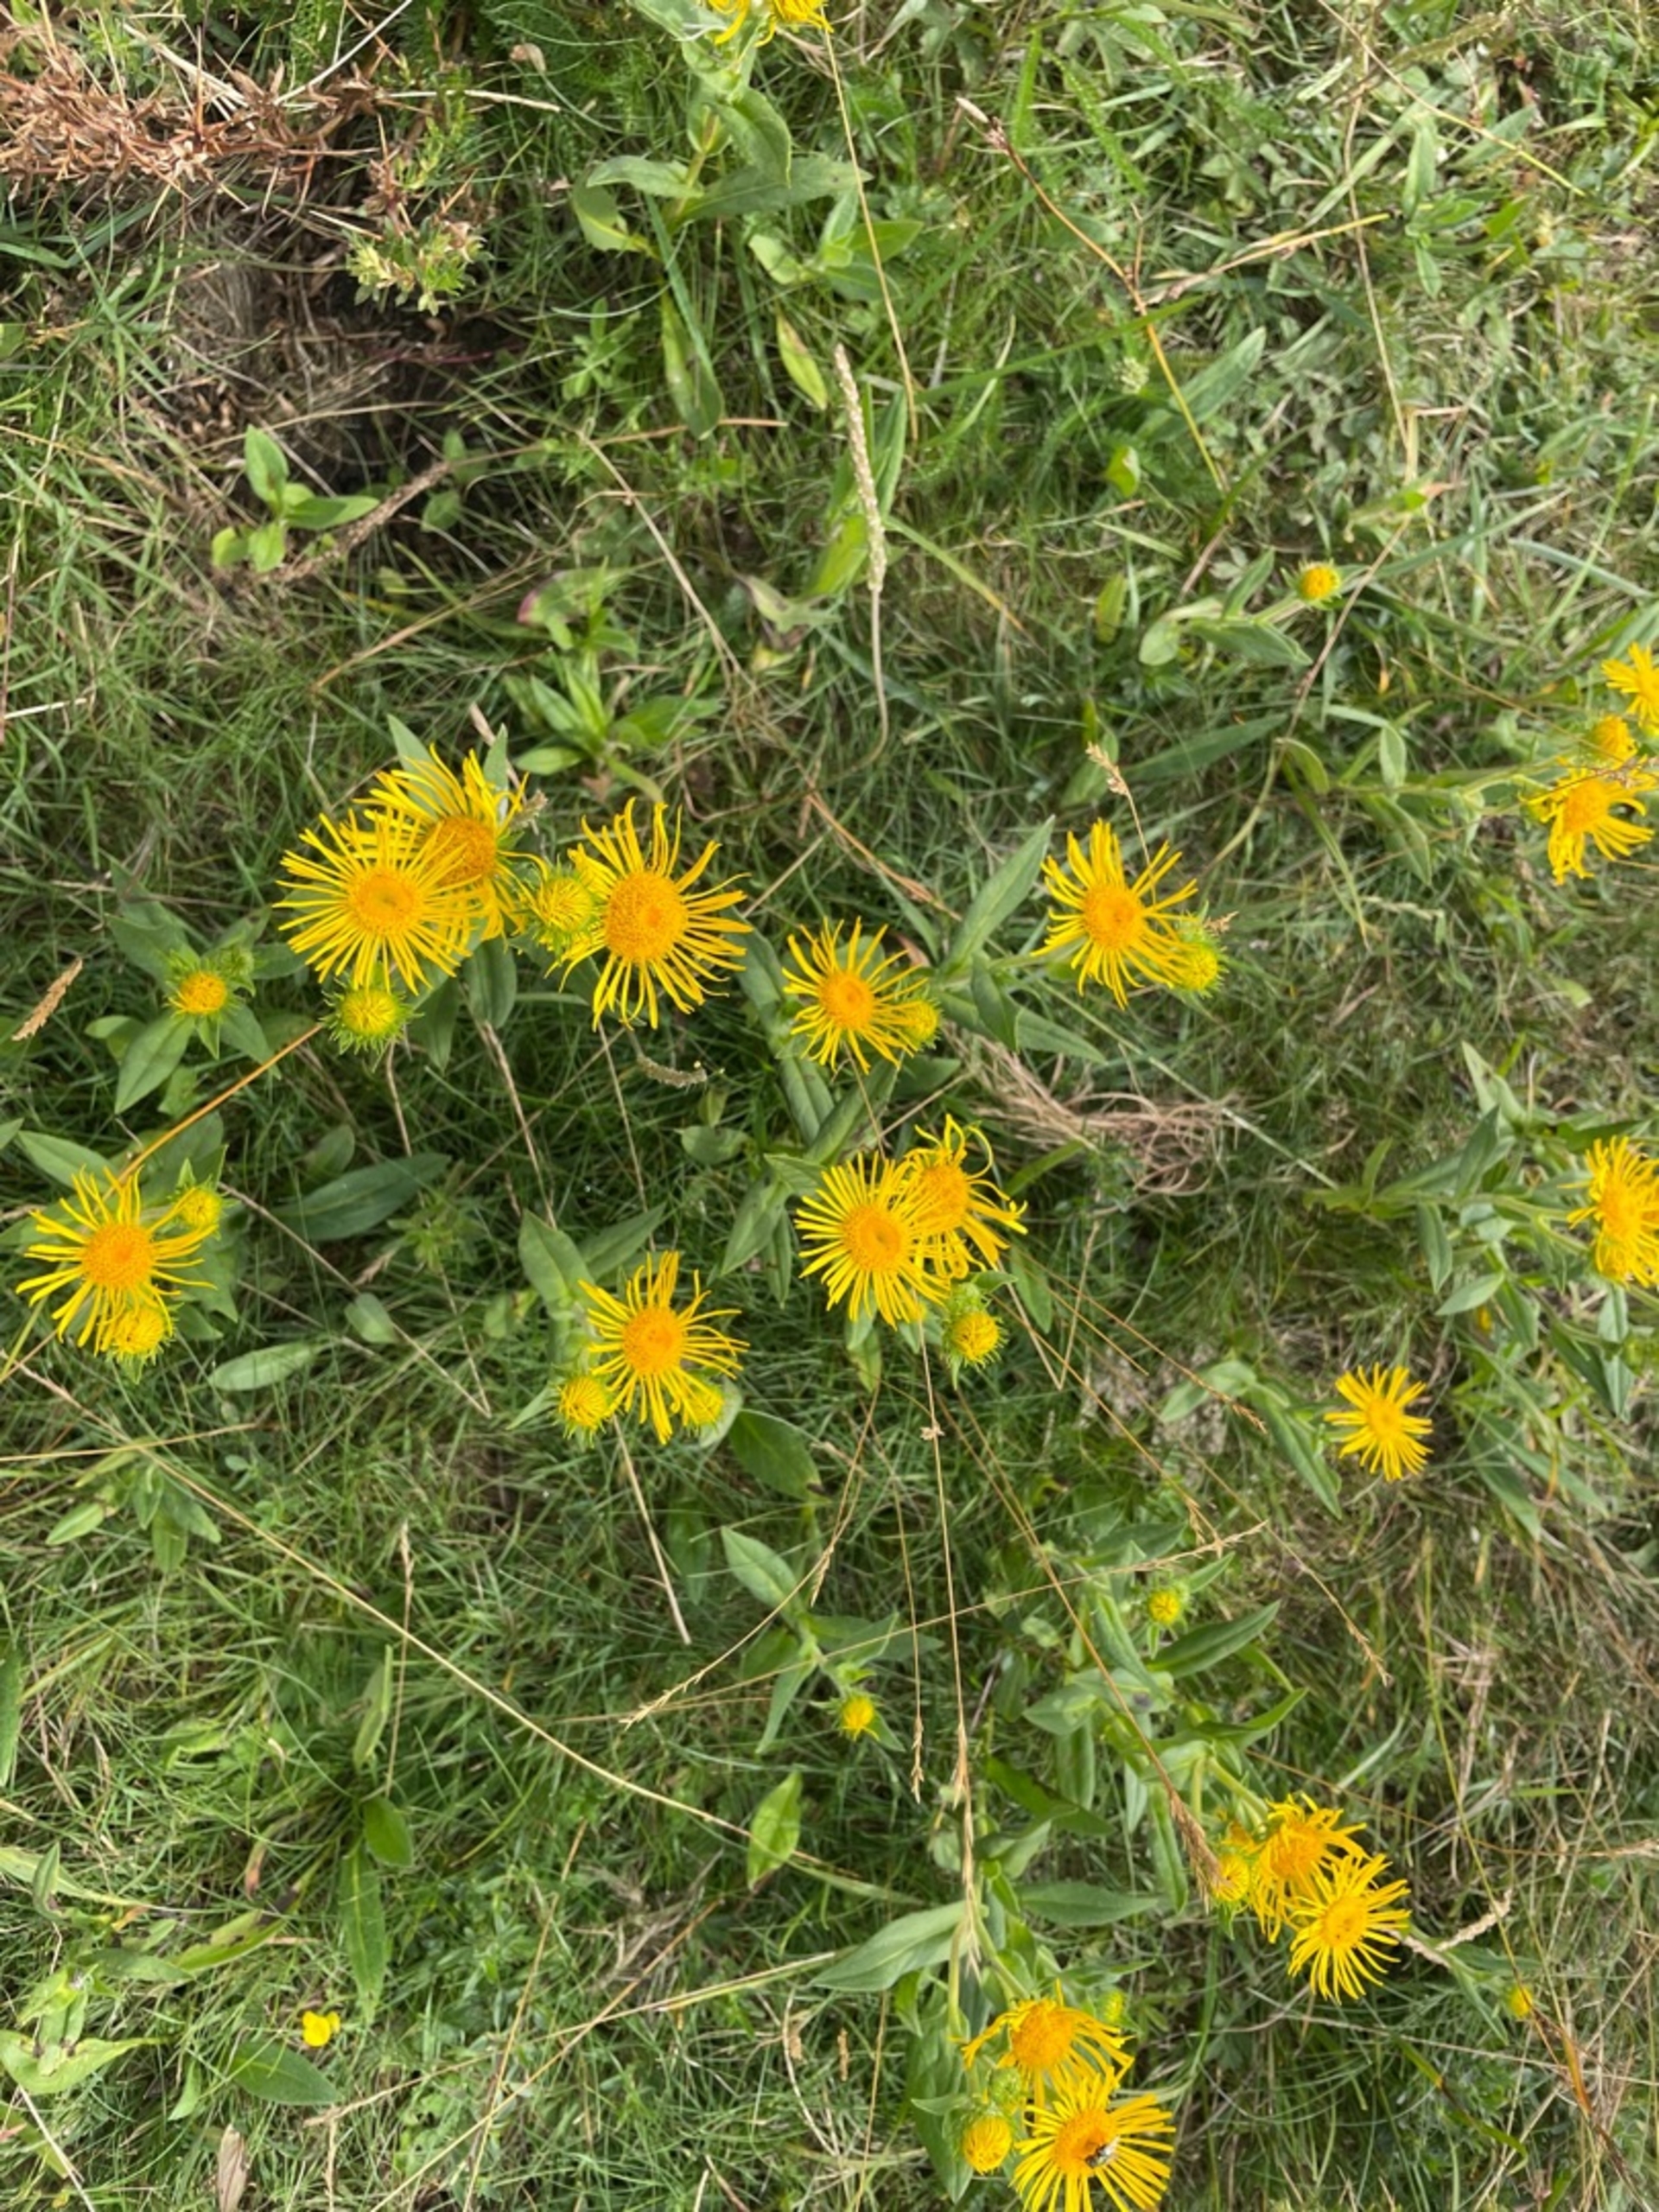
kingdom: Plantae
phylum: Tracheophyta
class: Magnoliopsida
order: Asterales
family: Asteraceae
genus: Pentanema
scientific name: Pentanema britannicum
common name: Soløje-alant
